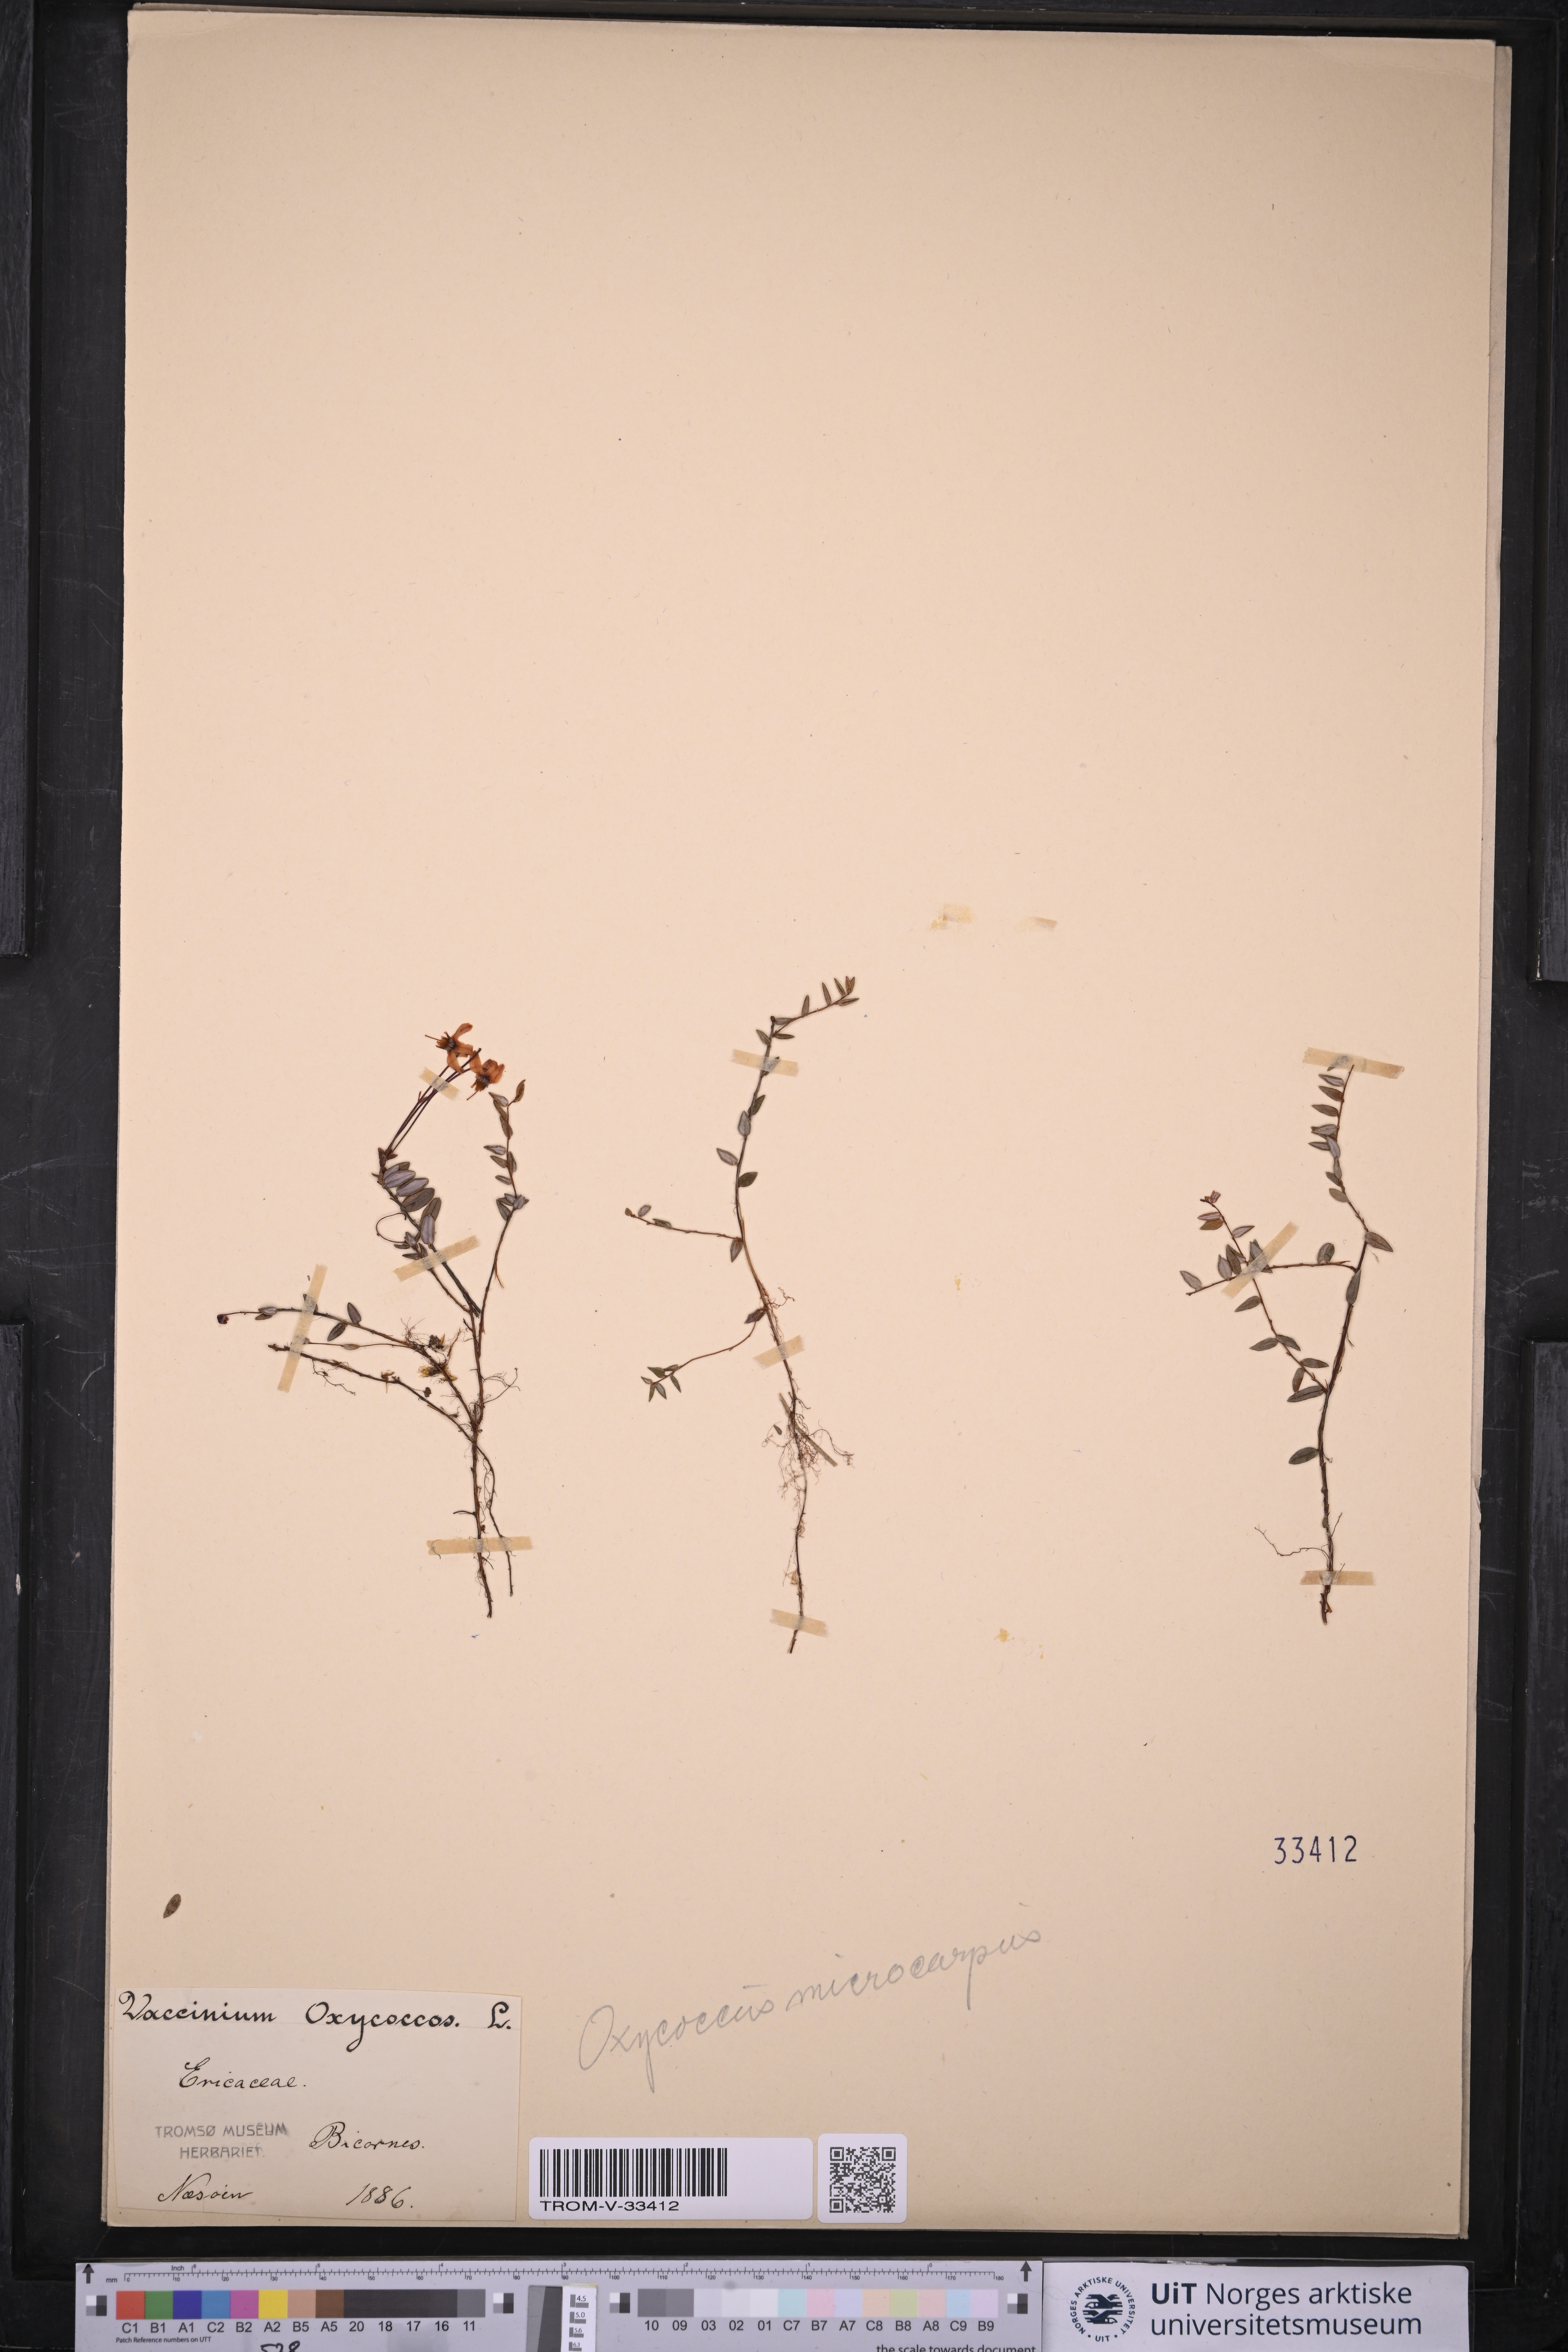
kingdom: Plantae
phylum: Tracheophyta
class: Magnoliopsida
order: Ericales
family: Ericaceae
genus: Vaccinium
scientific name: Vaccinium microcarpum
